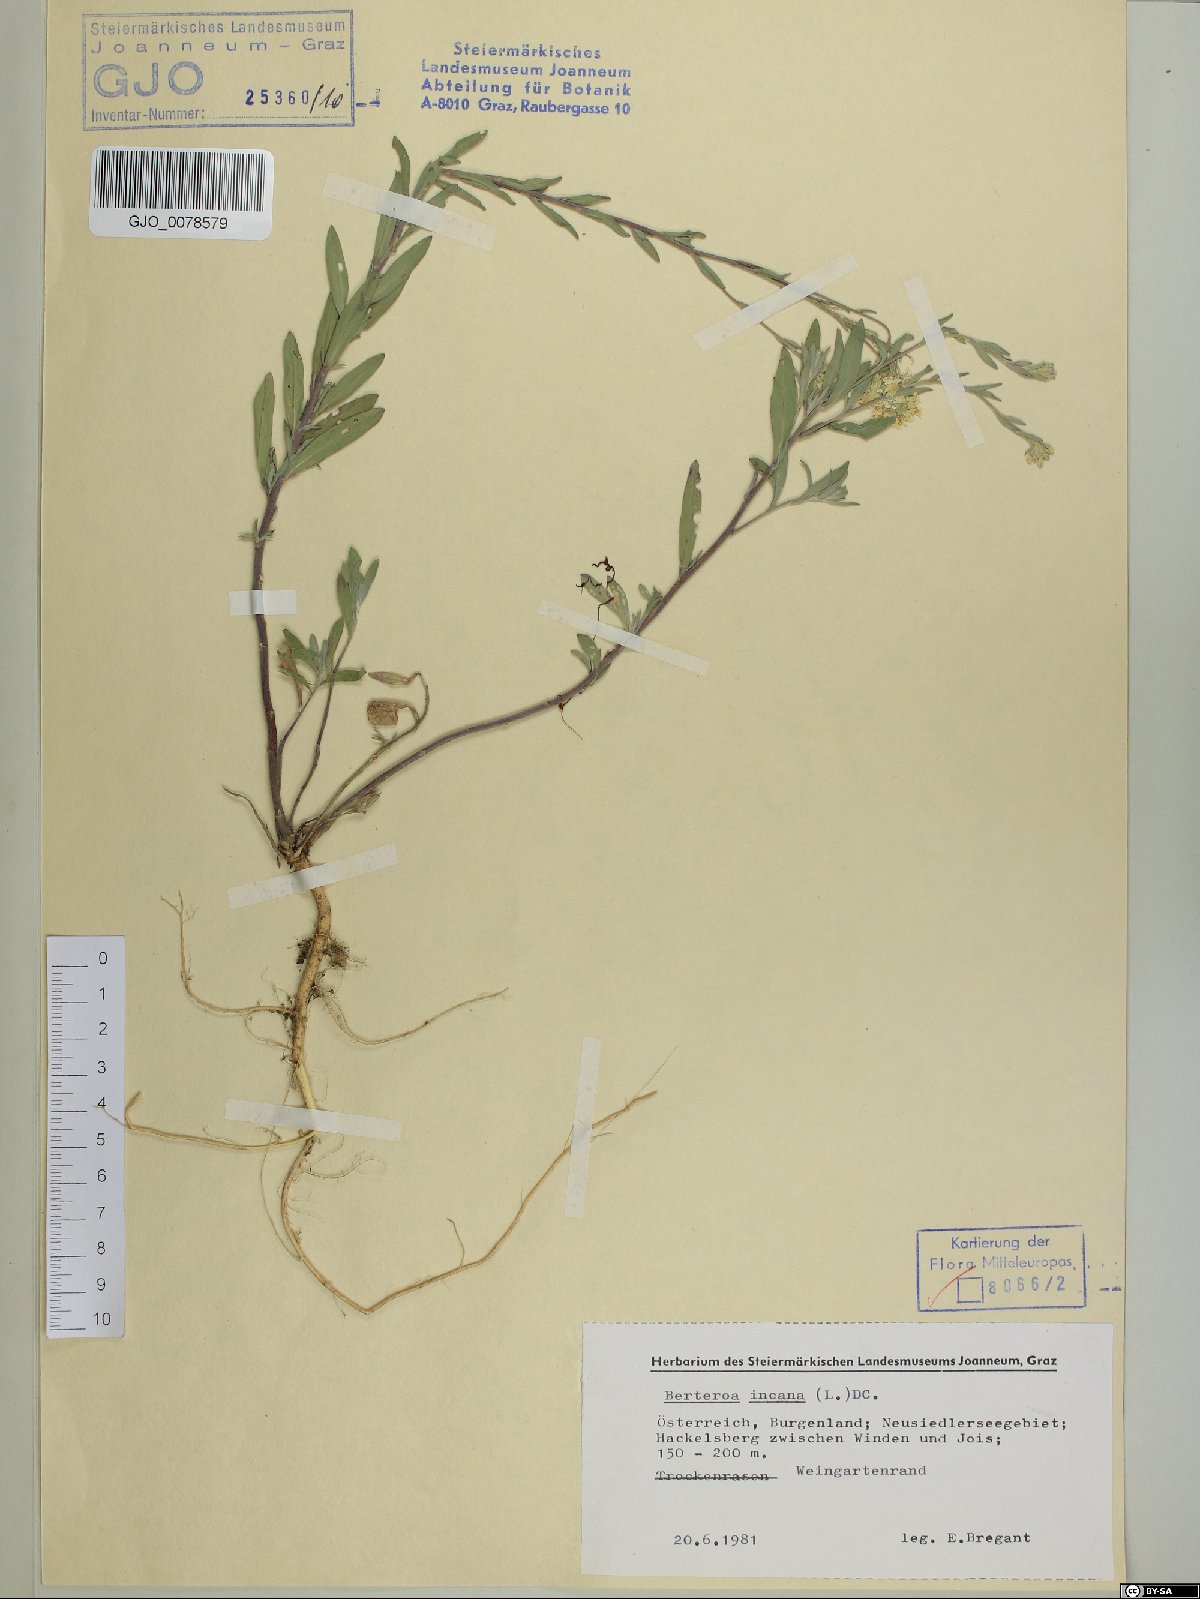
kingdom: Plantae
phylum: Tracheophyta
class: Magnoliopsida
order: Brassicales
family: Brassicaceae
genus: Berteroa
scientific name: Berteroa incana
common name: Hoary alison
